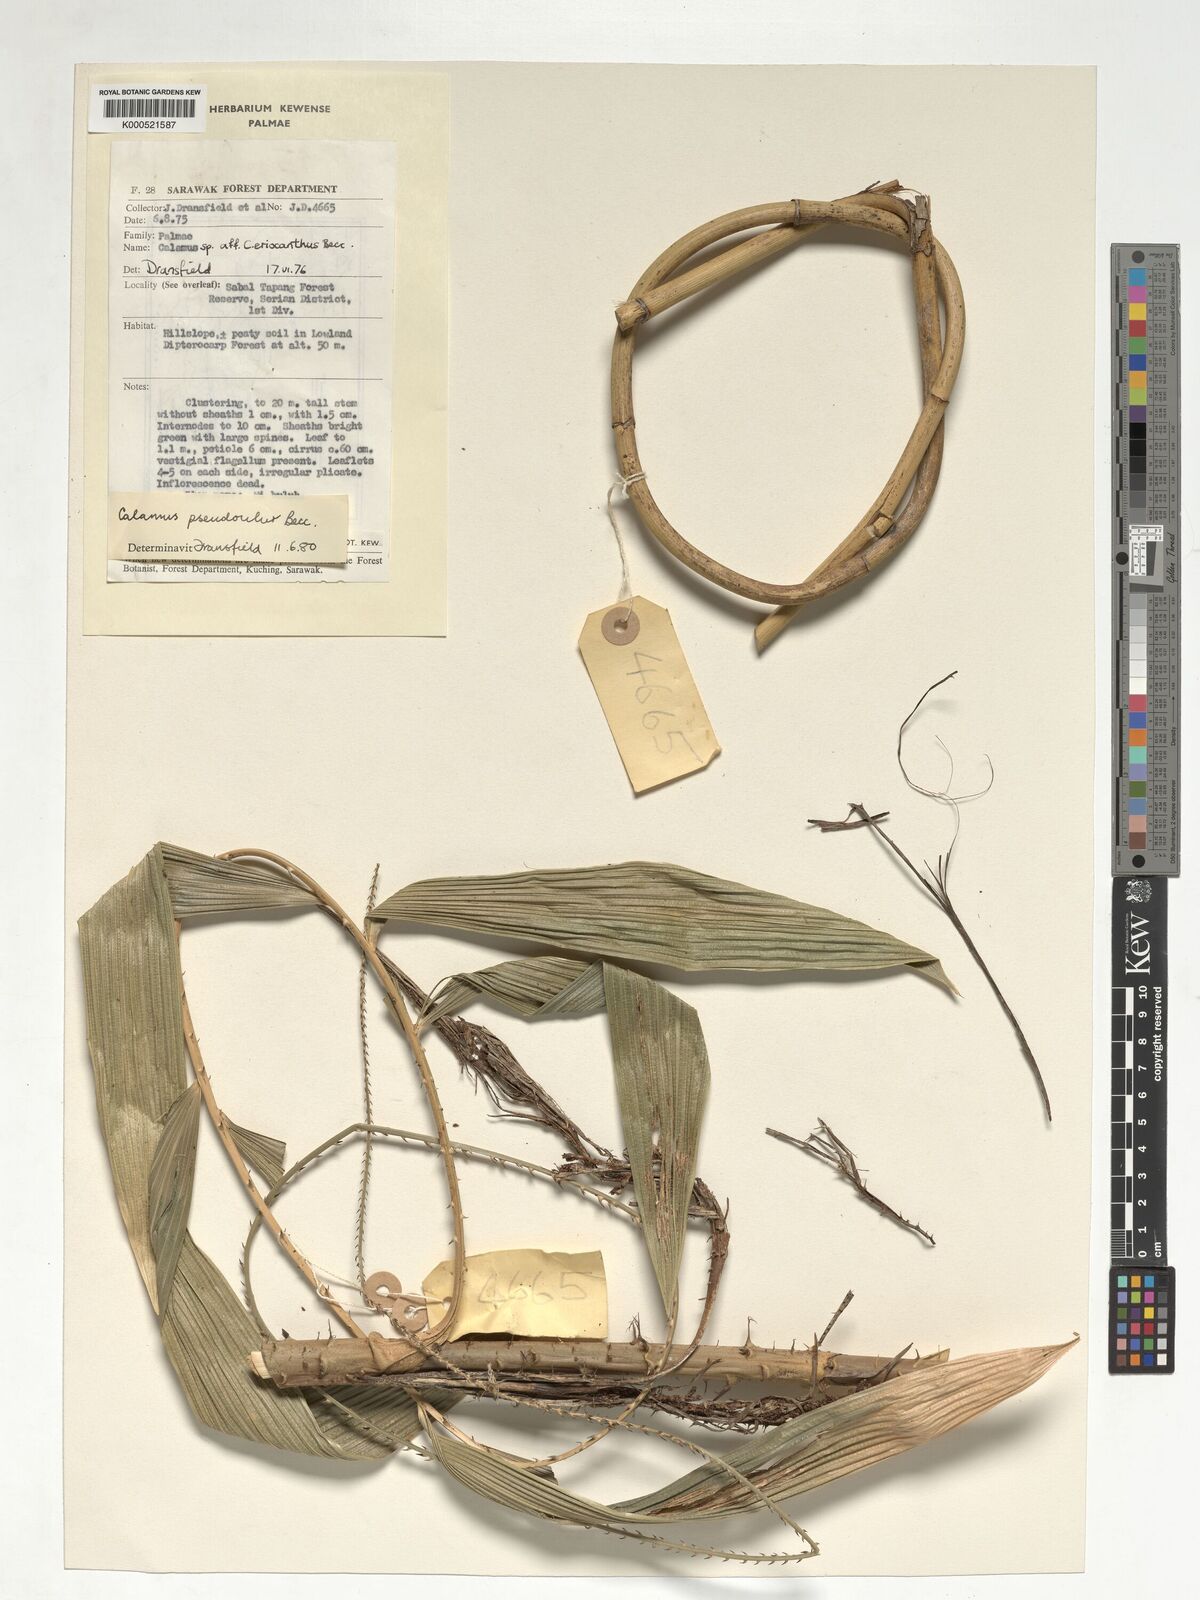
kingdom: Plantae
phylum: Tracheophyta
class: Liliopsida
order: Arecales
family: Arecaceae
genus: Calamus
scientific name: Calamus erioacanthus
